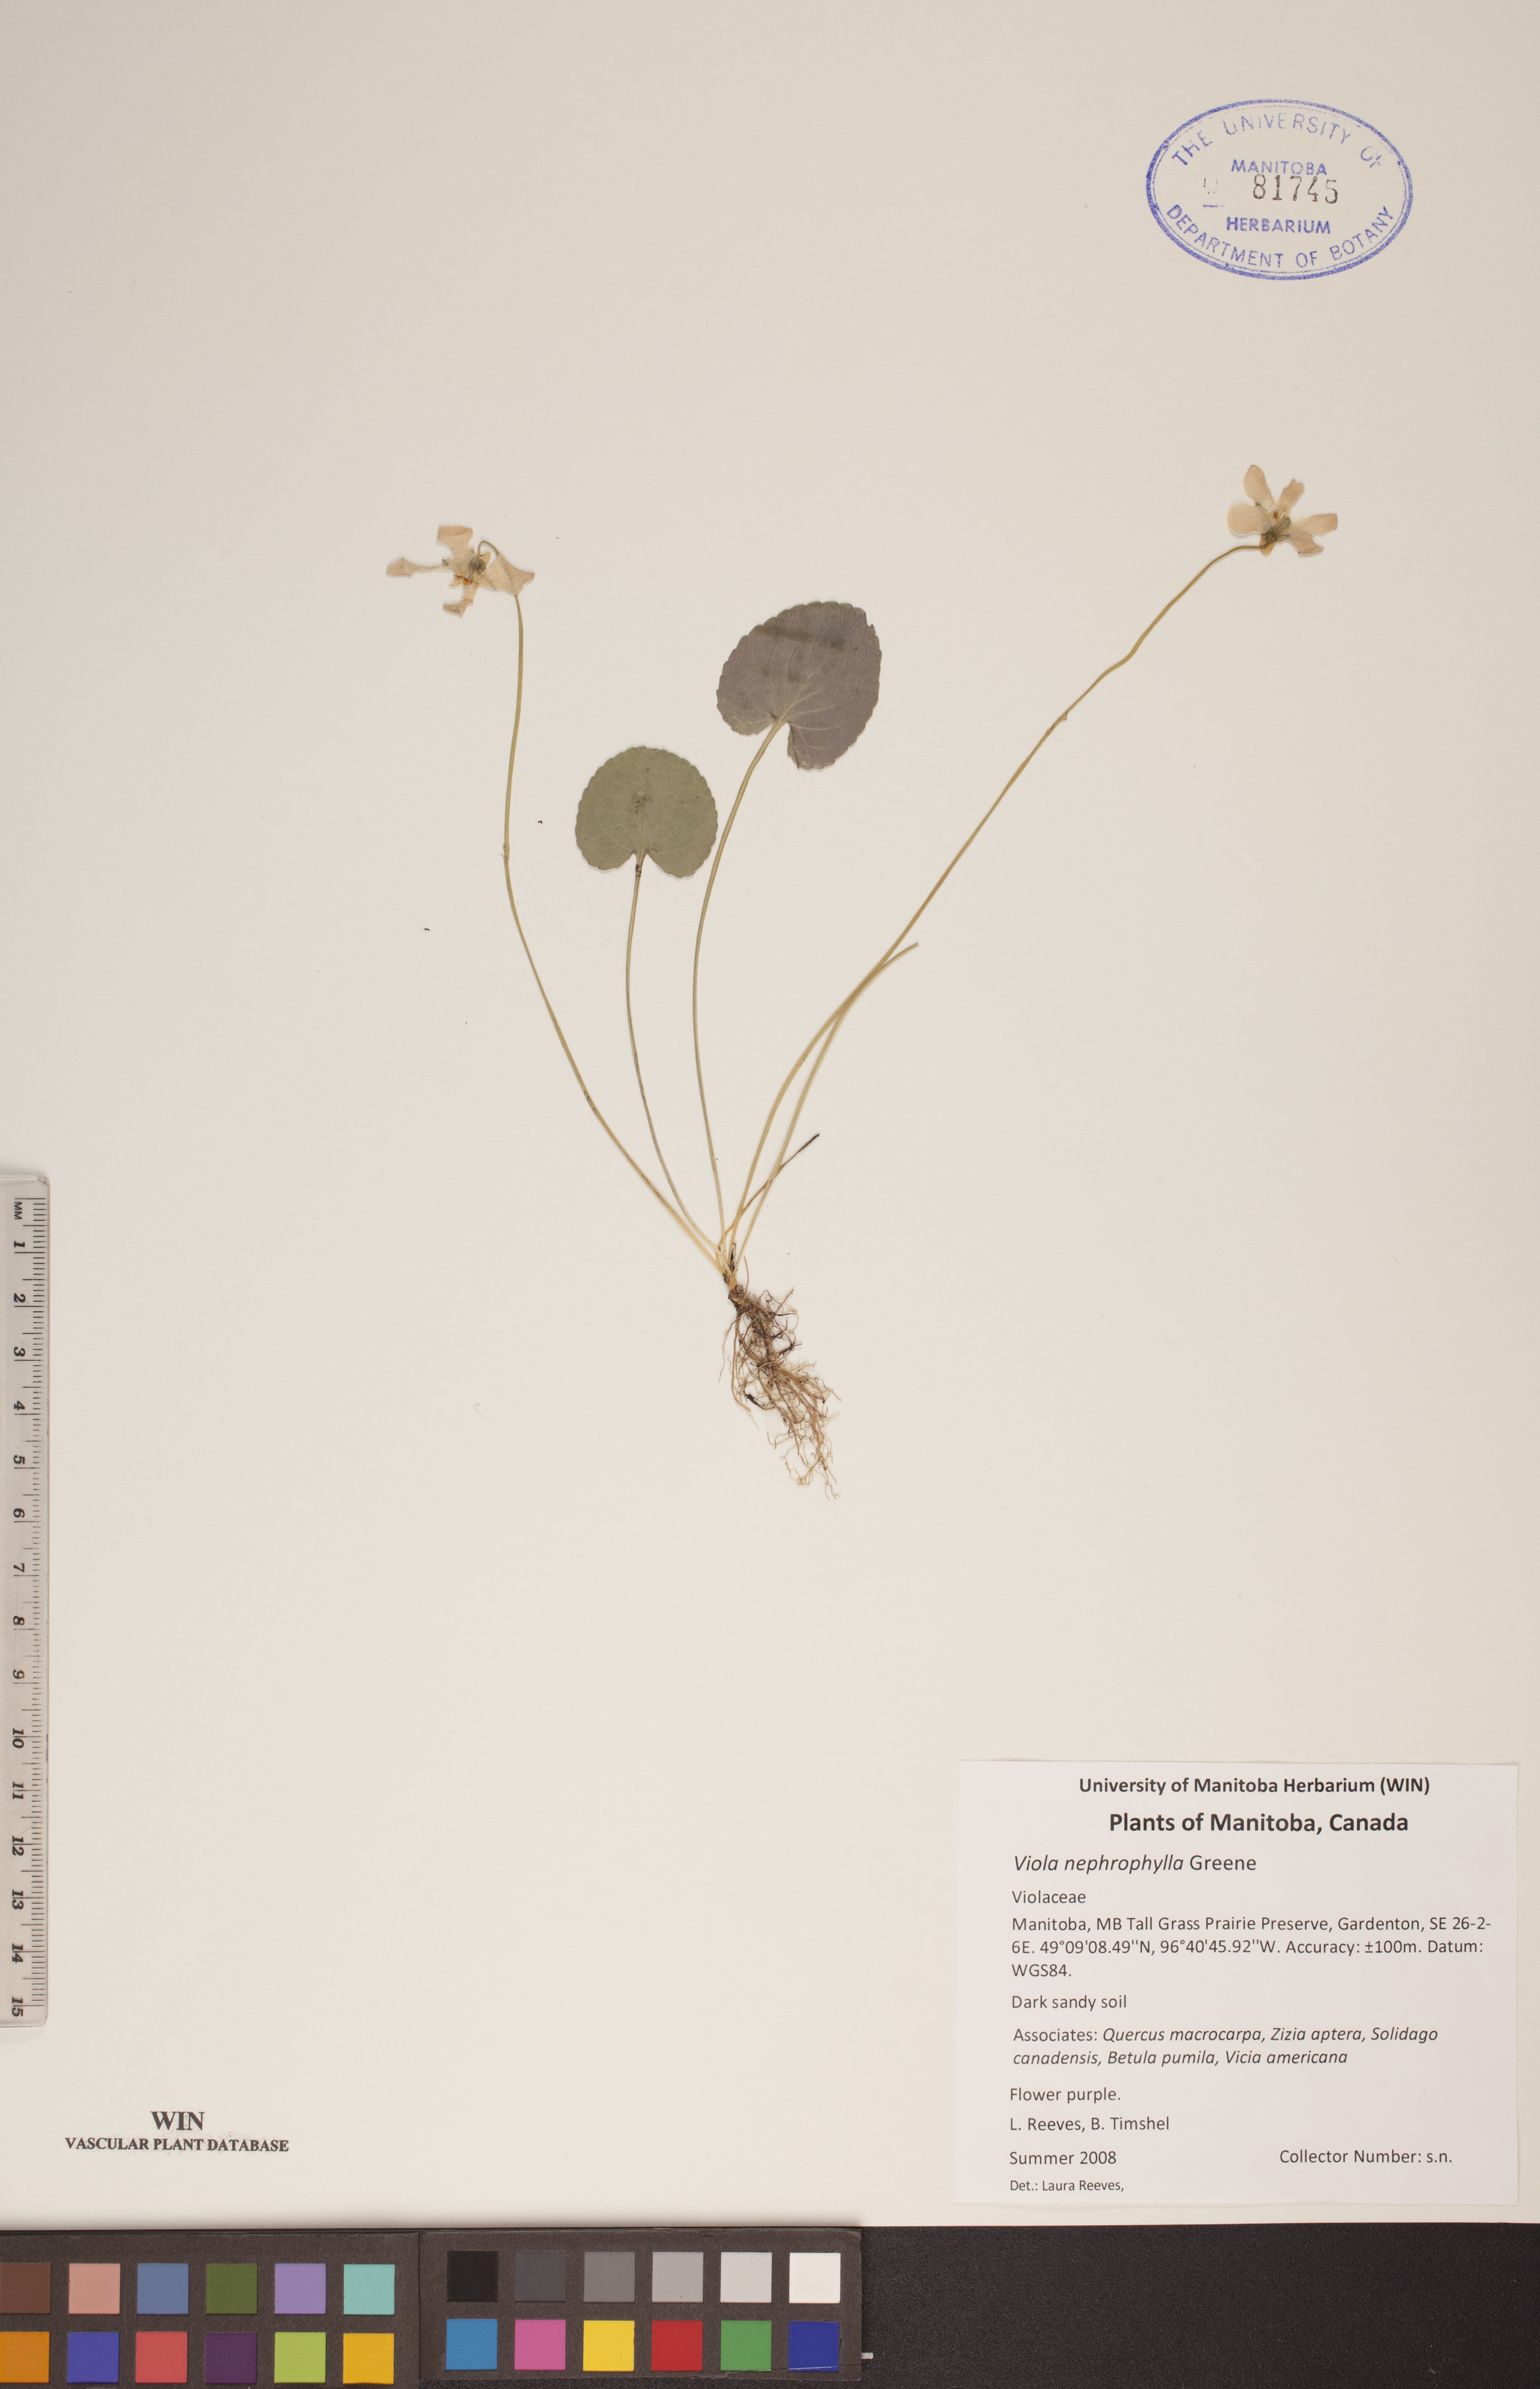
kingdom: Plantae
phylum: Tracheophyta
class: Magnoliopsida
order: Malpighiales
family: Violaceae
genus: Viola
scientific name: Viola nephrophylla
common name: Blue meadow violet
